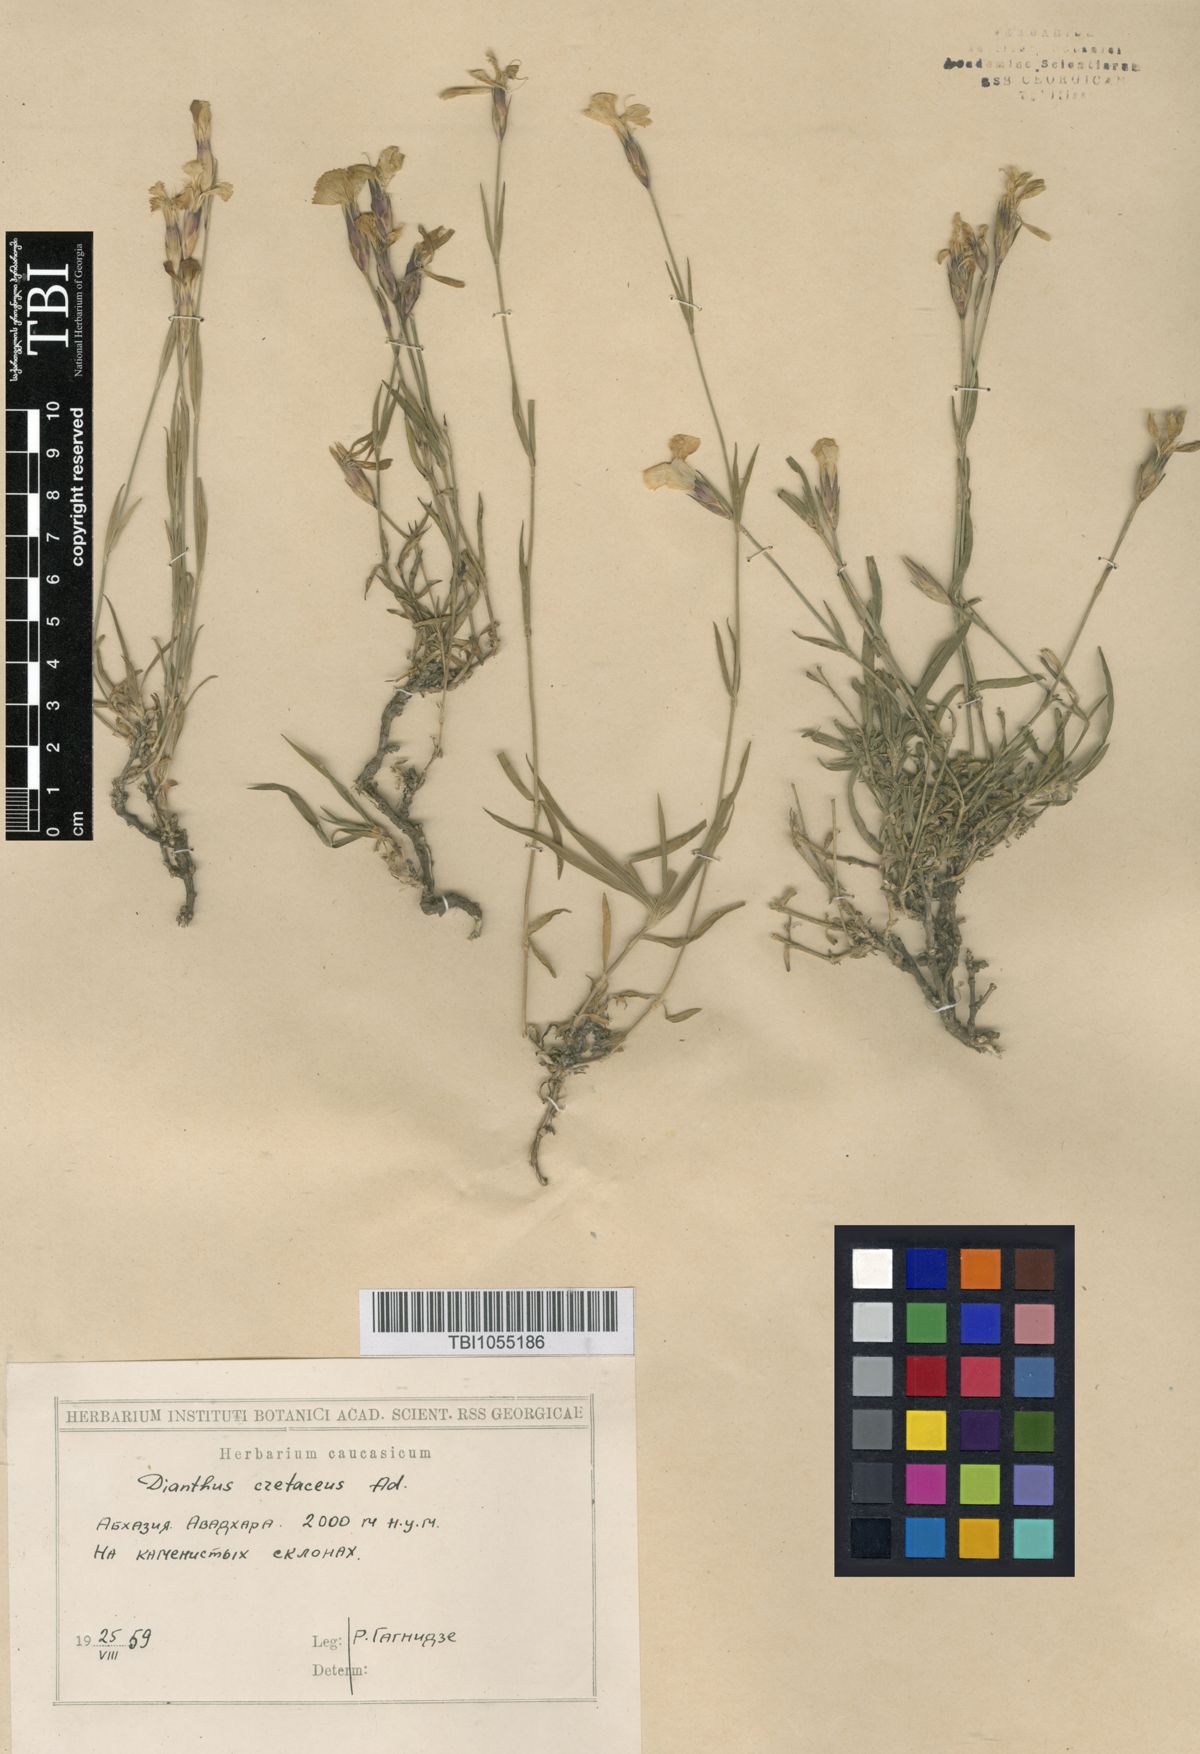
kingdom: Plantae
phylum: Tracheophyta
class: Magnoliopsida
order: Caryophyllales
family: Caryophyllaceae
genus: Dianthus
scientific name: Dianthus cretaceus
